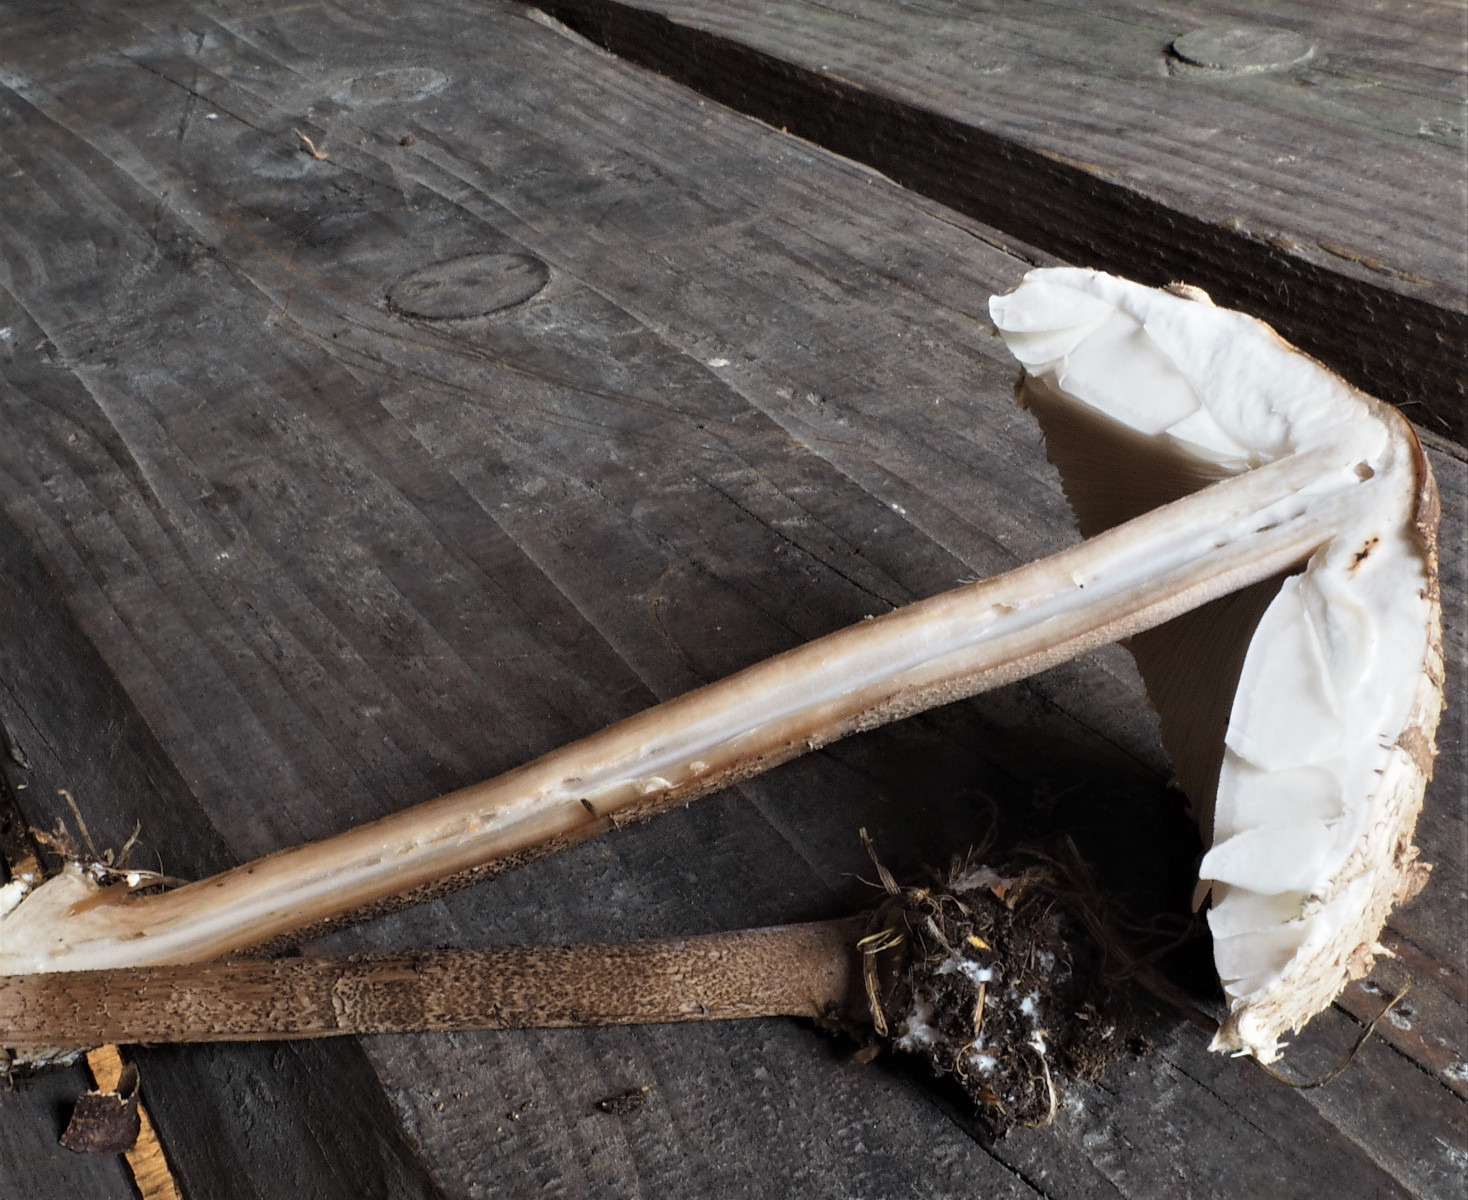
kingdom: Fungi
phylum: Basidiomycota
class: Agaricomycetes
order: Agaricales
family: Agaricaceae
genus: Macrolepiota
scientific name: Macrolepiota fuliginosa
